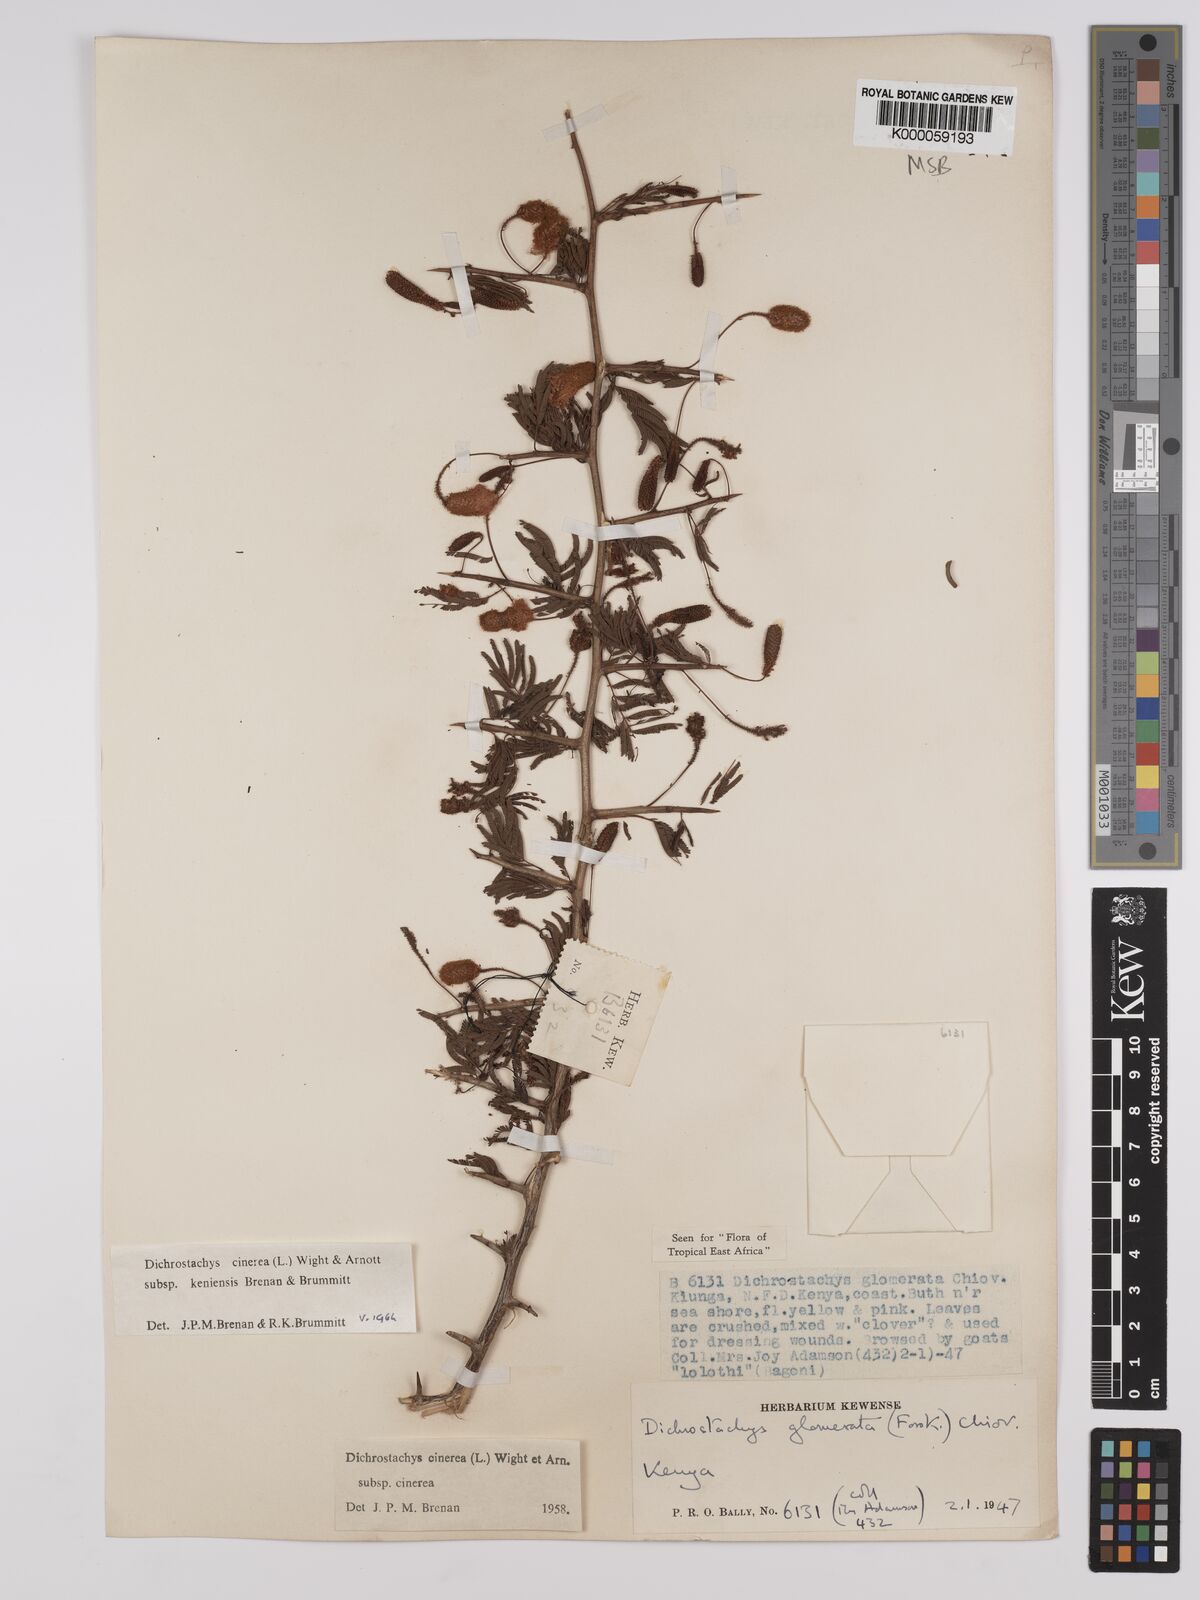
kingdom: Plantae
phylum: Tracheophyta
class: Magnoliopsida
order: Fabales
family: Fabaceae
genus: Dichrostachys
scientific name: Dichrostachys cinerea
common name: Sicklebush
